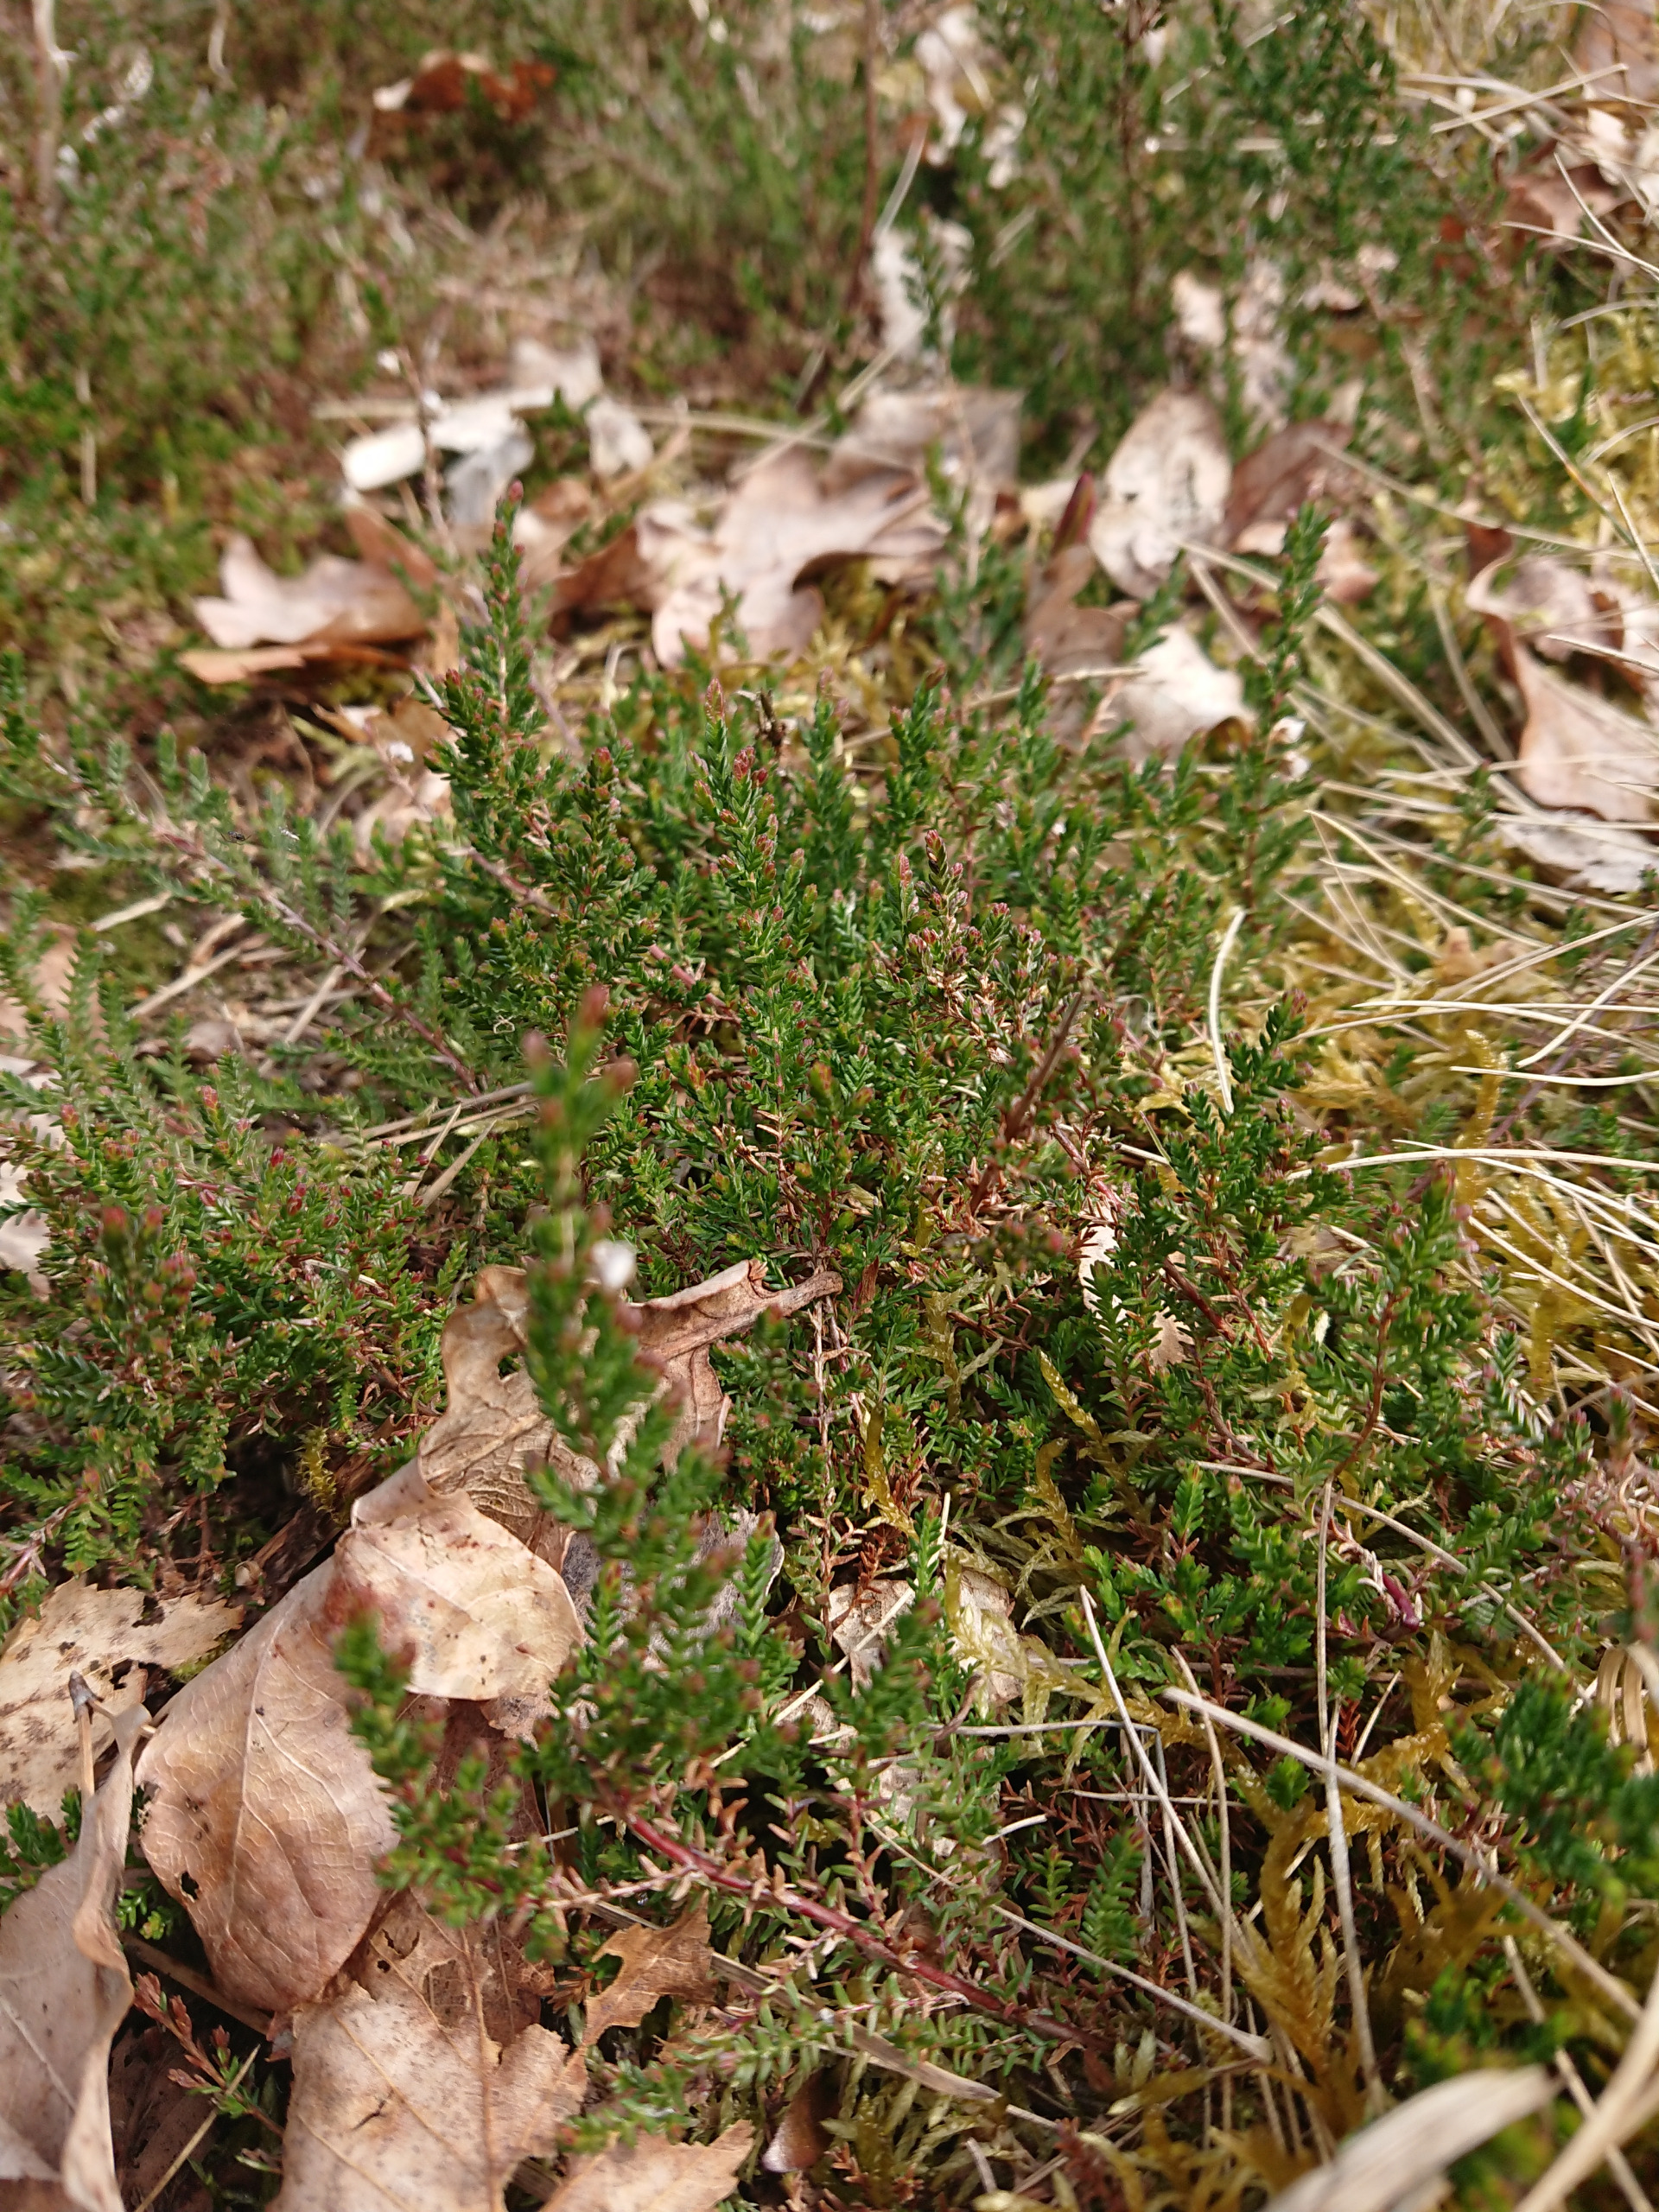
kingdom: Plantae
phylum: Tracheophyta
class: Magnoliopsida
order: Ericales
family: Ericaceae
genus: Calluna
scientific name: Calluna vulgaris
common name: Hedelyng
